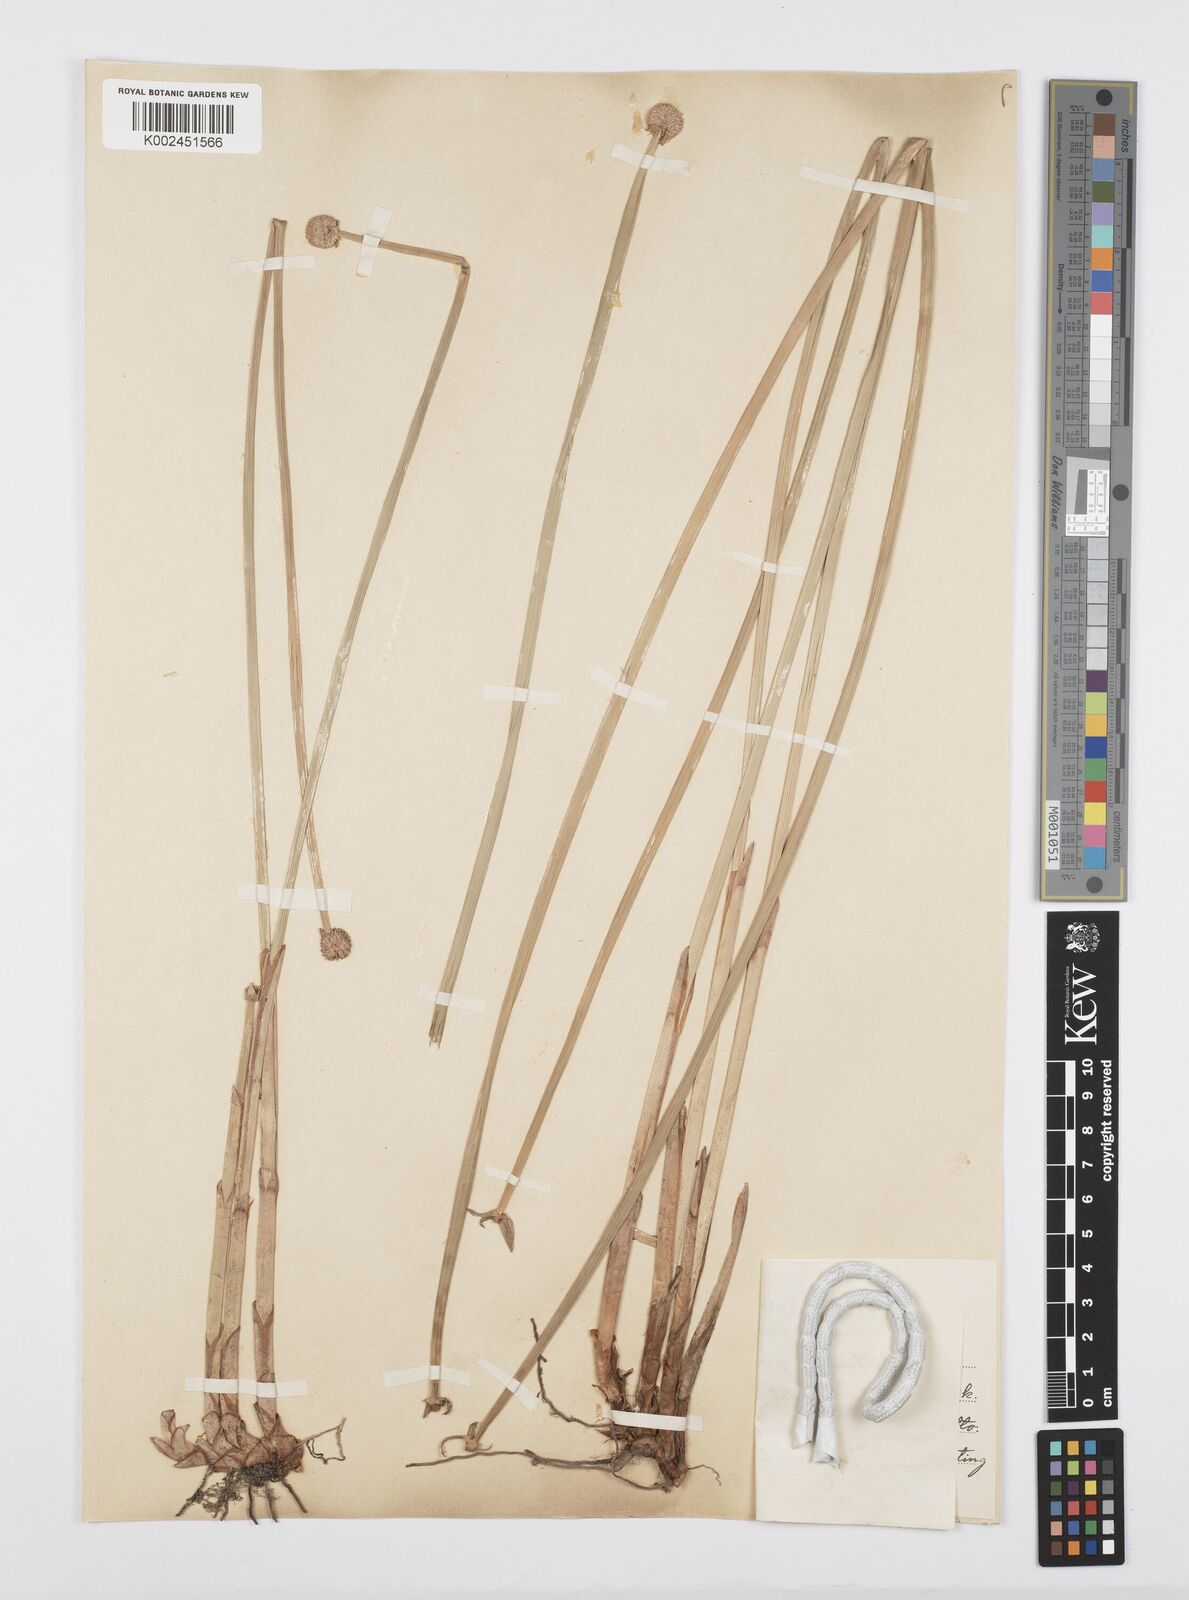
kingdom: Plantae
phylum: Tracheophyta
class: Liliopsida
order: Poales
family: Cyperaceae
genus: Cyperus
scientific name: Cyperus obtusatus
